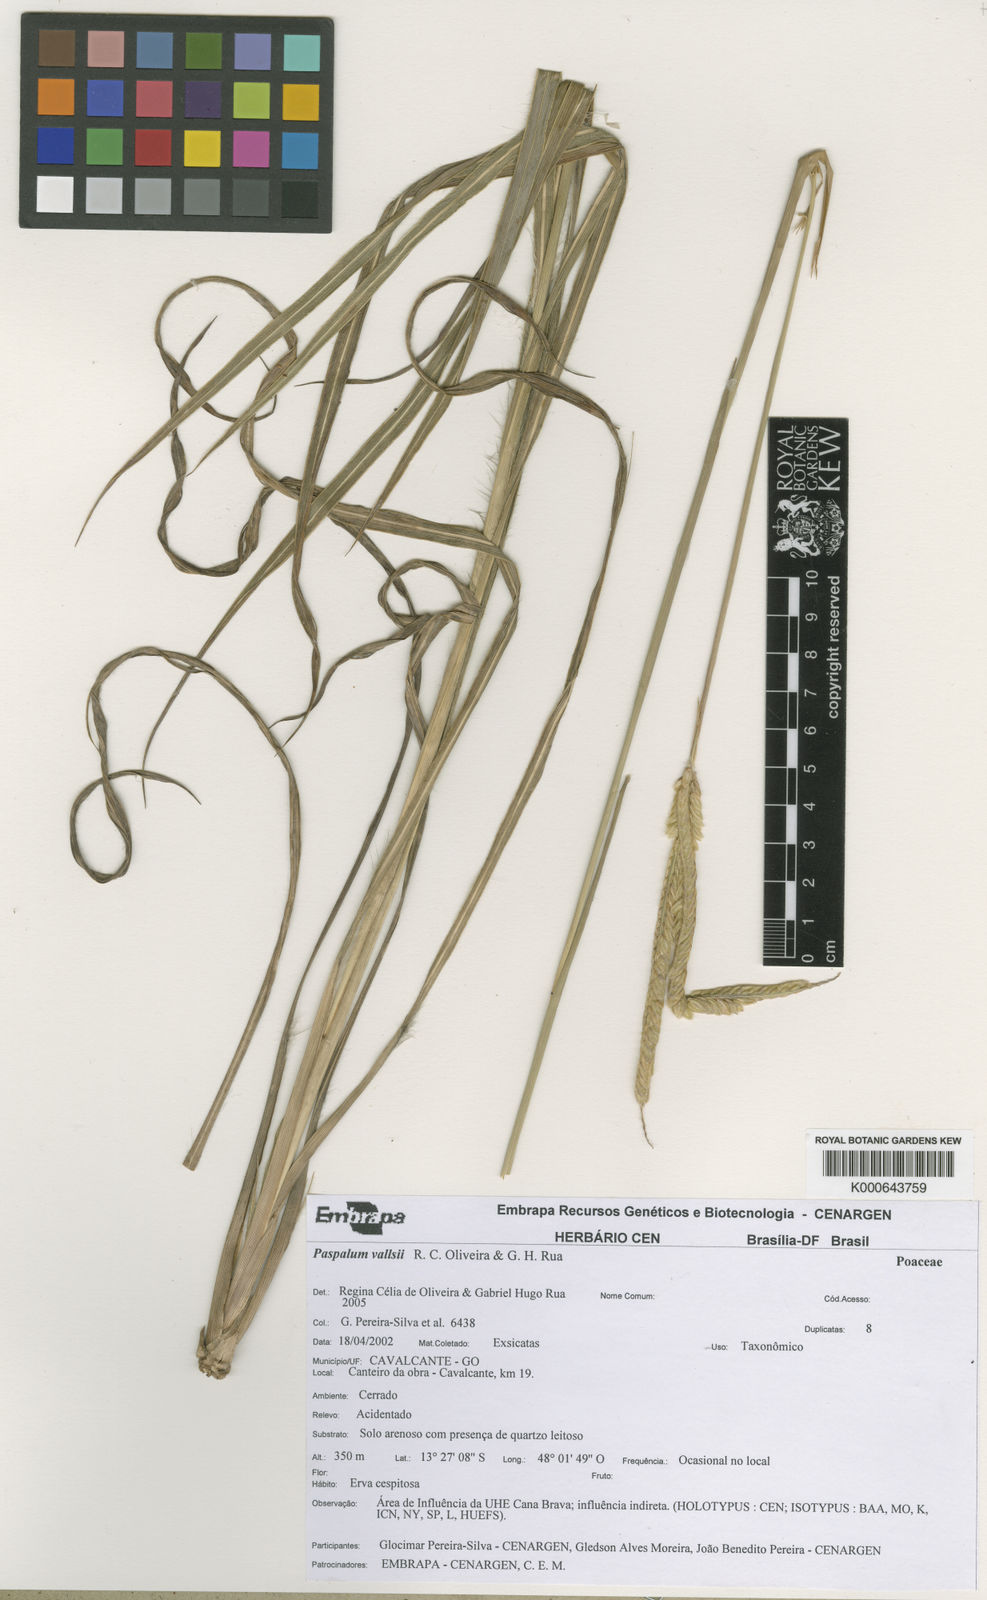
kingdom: Plantae
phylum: Tracheophyta
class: Liliopsida
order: Poales
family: Poaceae
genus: Paspalum
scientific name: Paspalum reticulinerve
